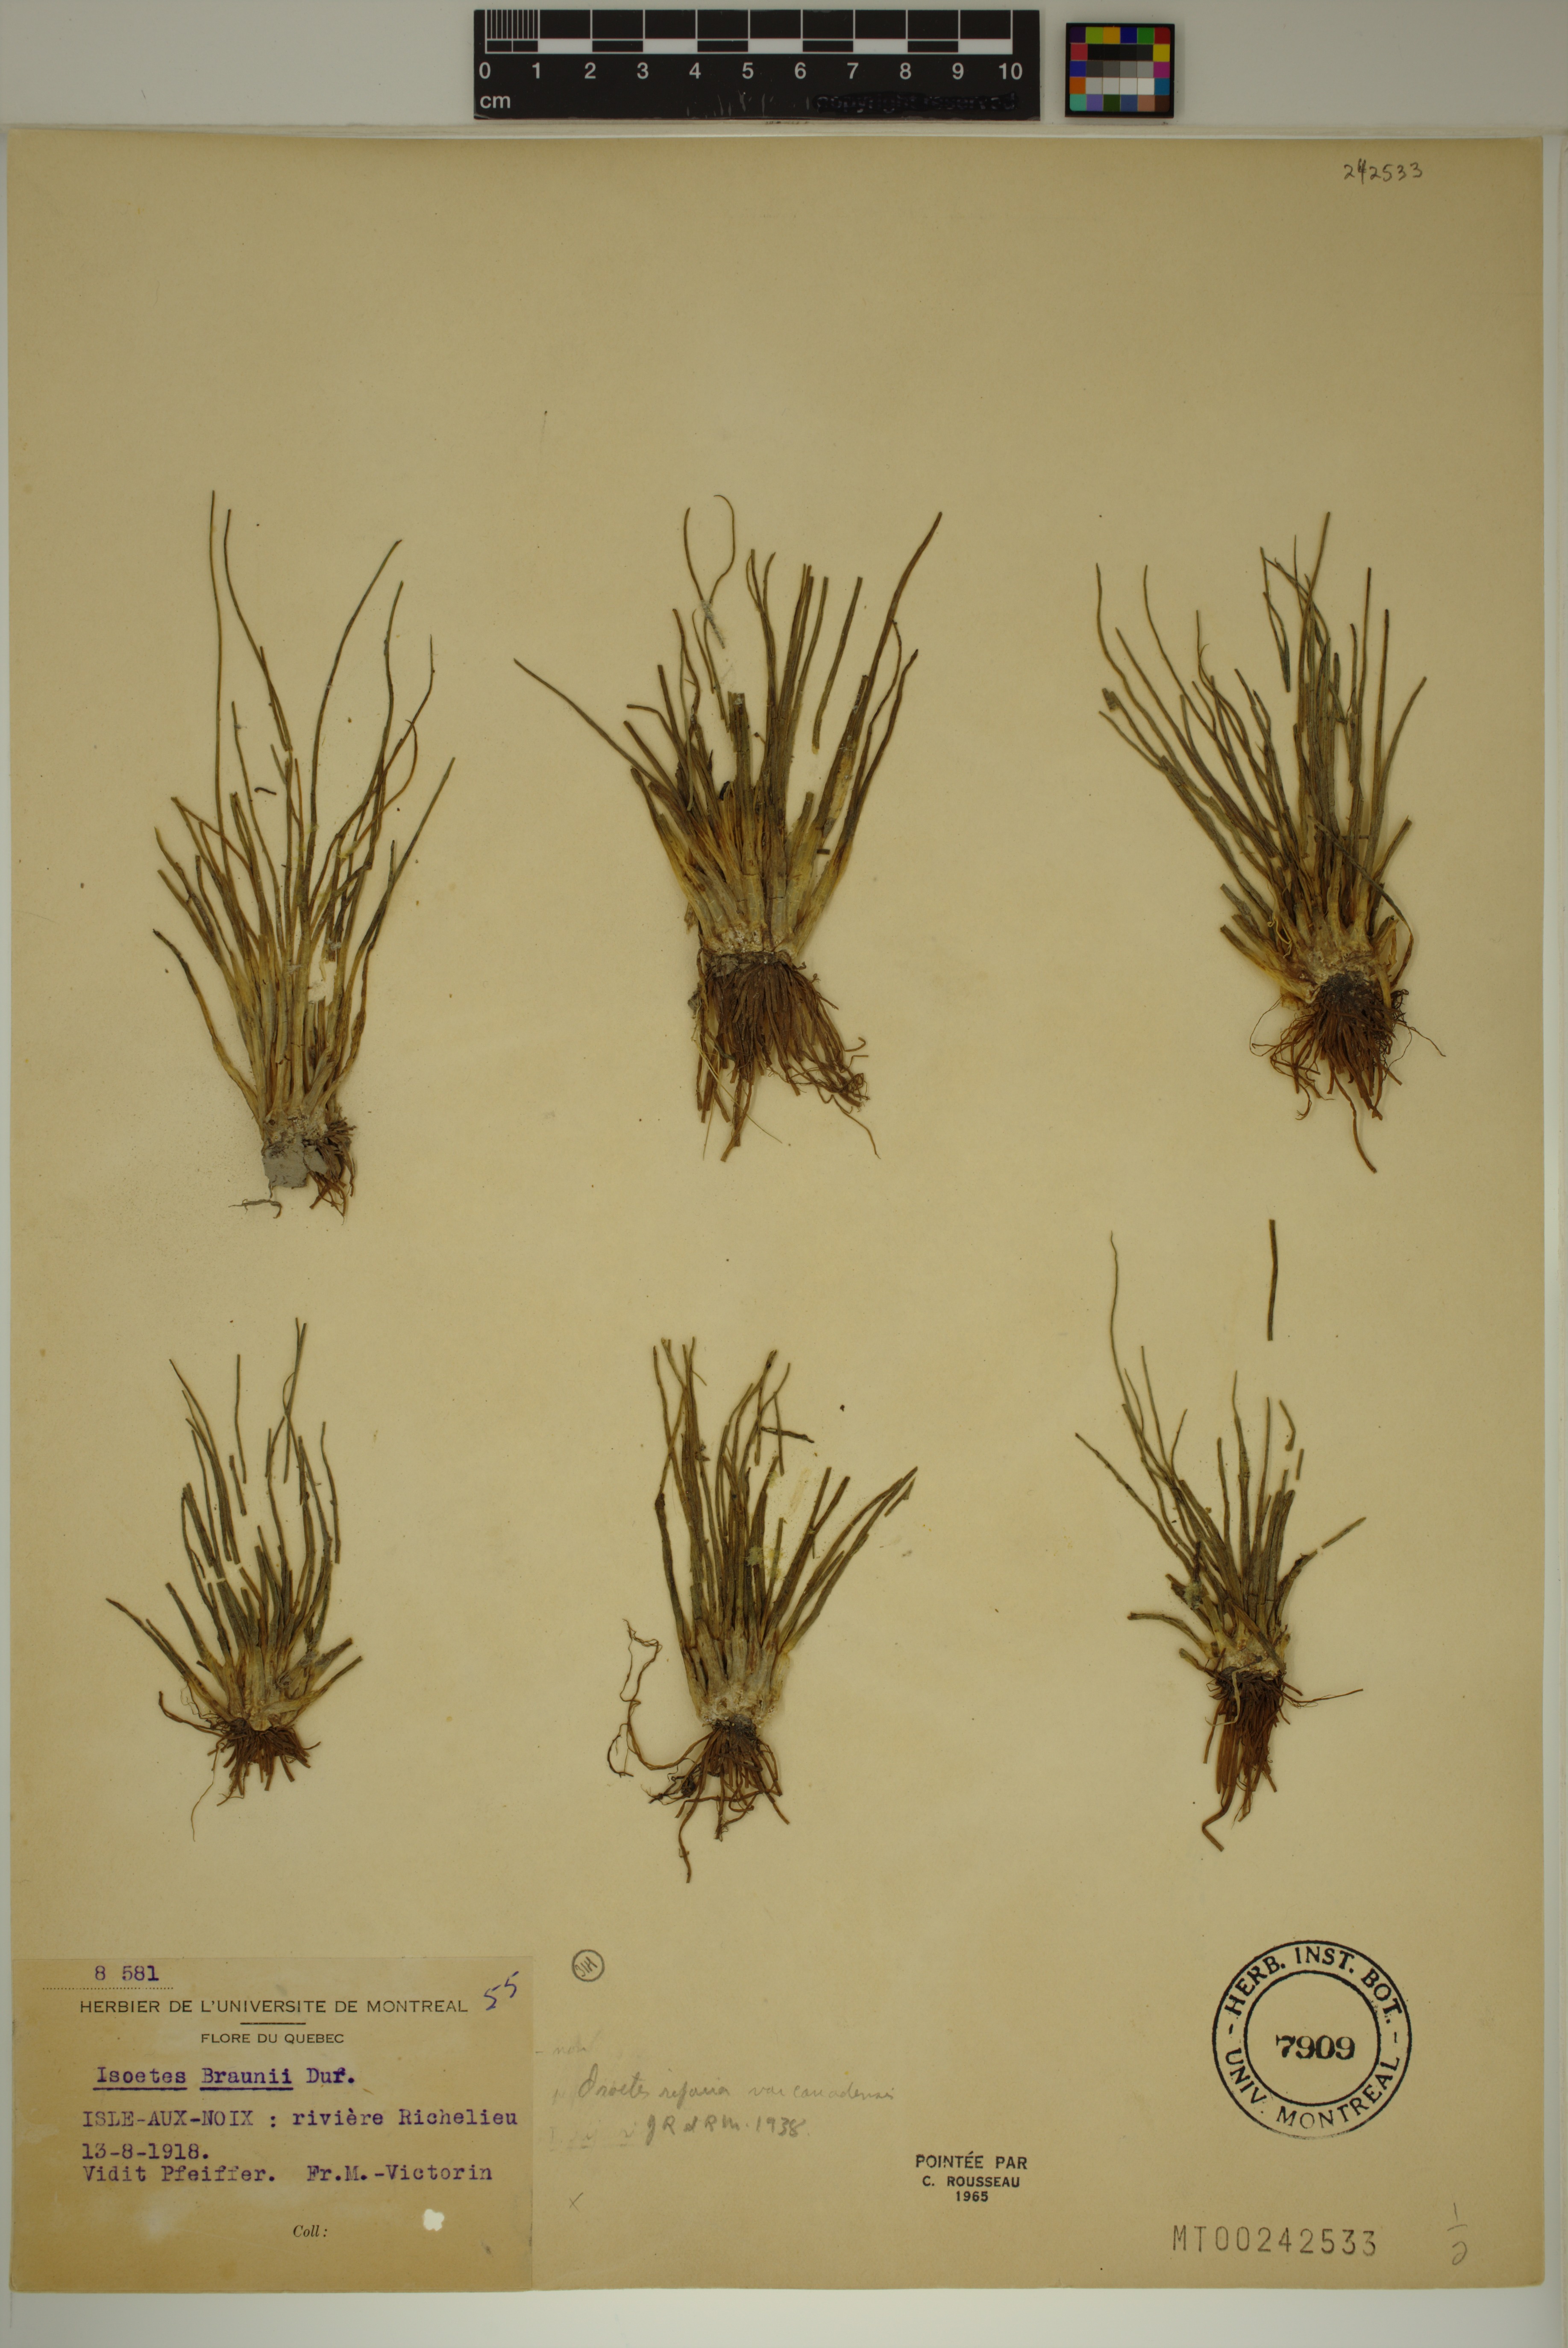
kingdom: Plantae
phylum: Tracheophyta
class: Lycopodiopsida
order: Isoetales
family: Isoetaceae
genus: Isoetes
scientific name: Isoetes septentrionalis
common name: Northern quillwort
